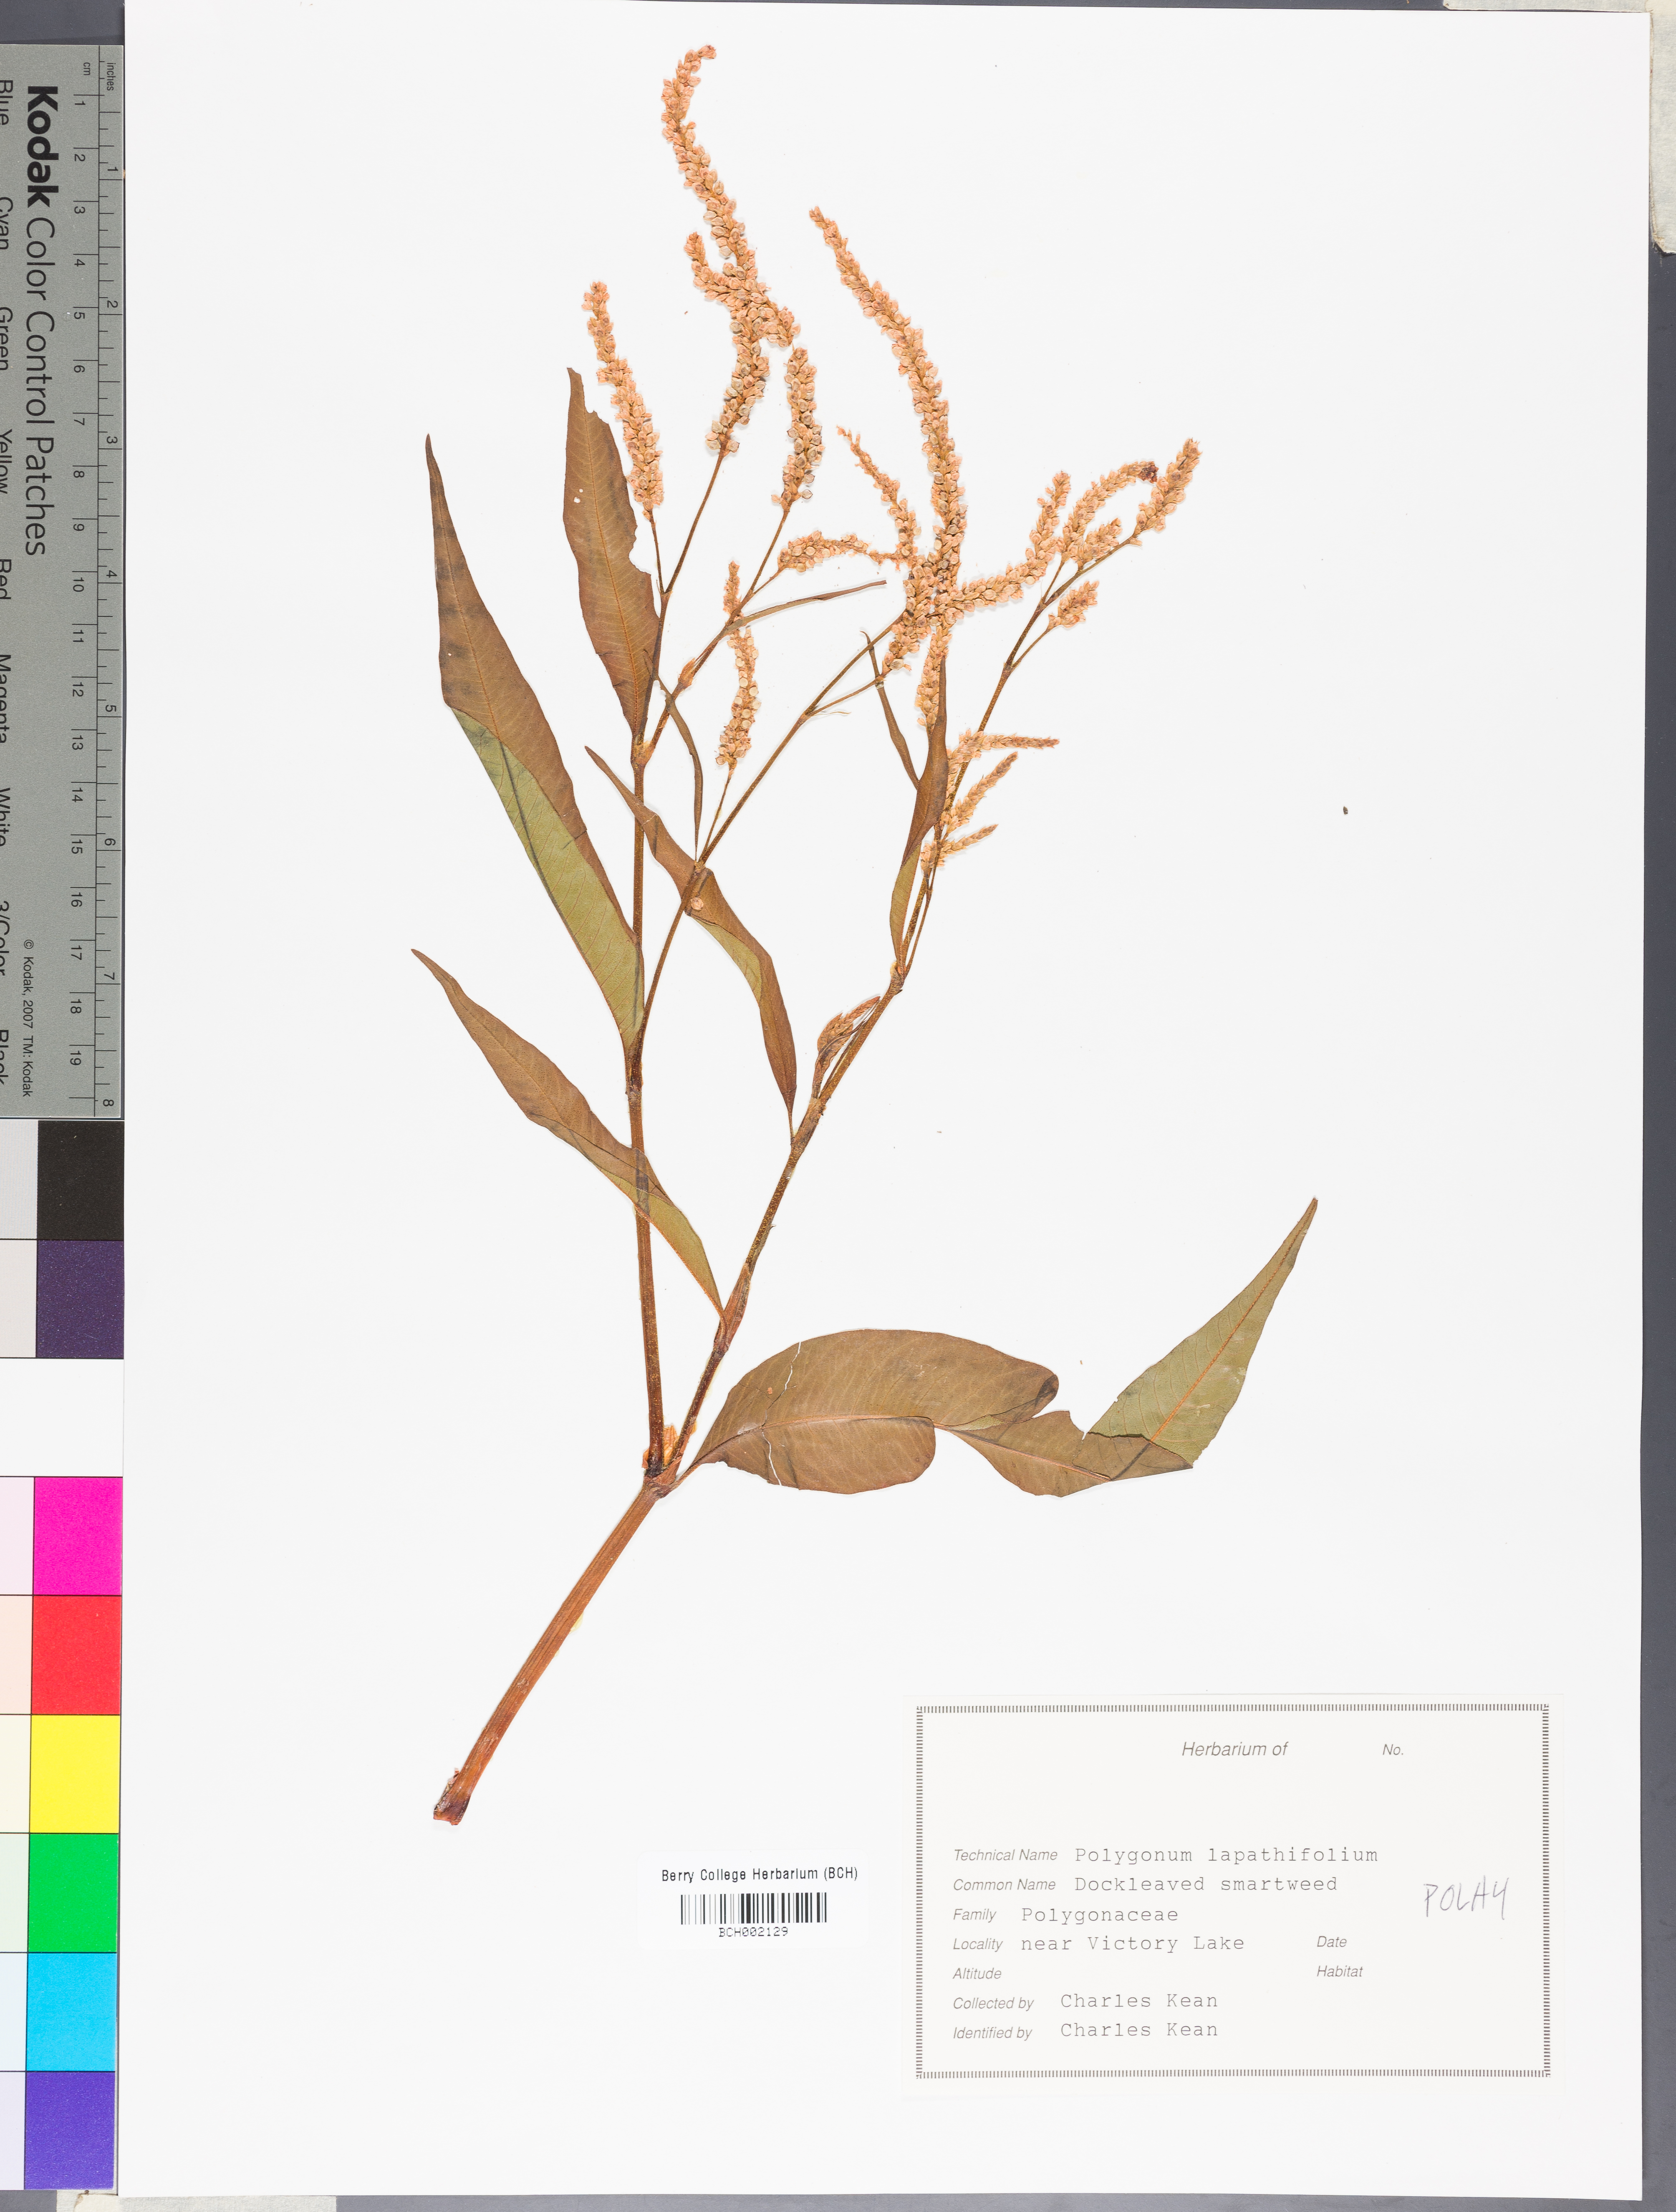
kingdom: Plantae
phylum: Tracheophyta
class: Magnoliopsida
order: Caryophyllales
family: Polygonaceae
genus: Persicaria
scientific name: Persicaria lapathifolia
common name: Curlytop knotweed
